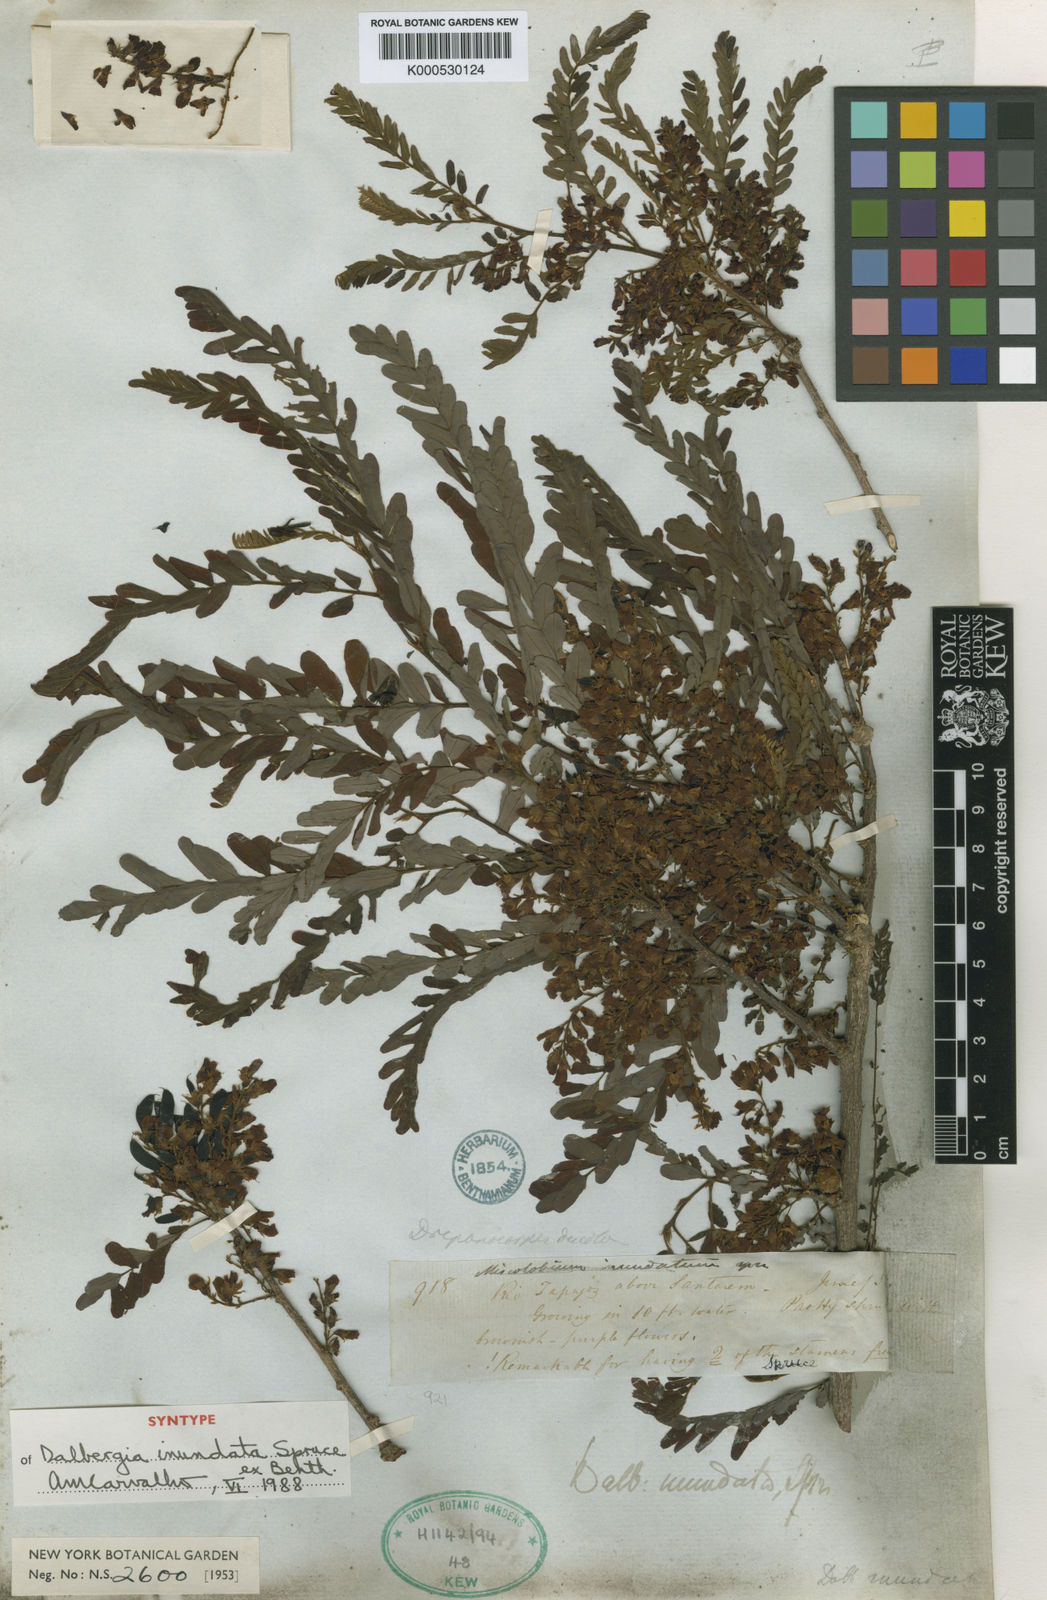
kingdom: Plantae
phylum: Tracheophyta
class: Magnoliopsida
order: Fabales
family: Fabaceae
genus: Dalbergia
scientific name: Dalbergia inundata
